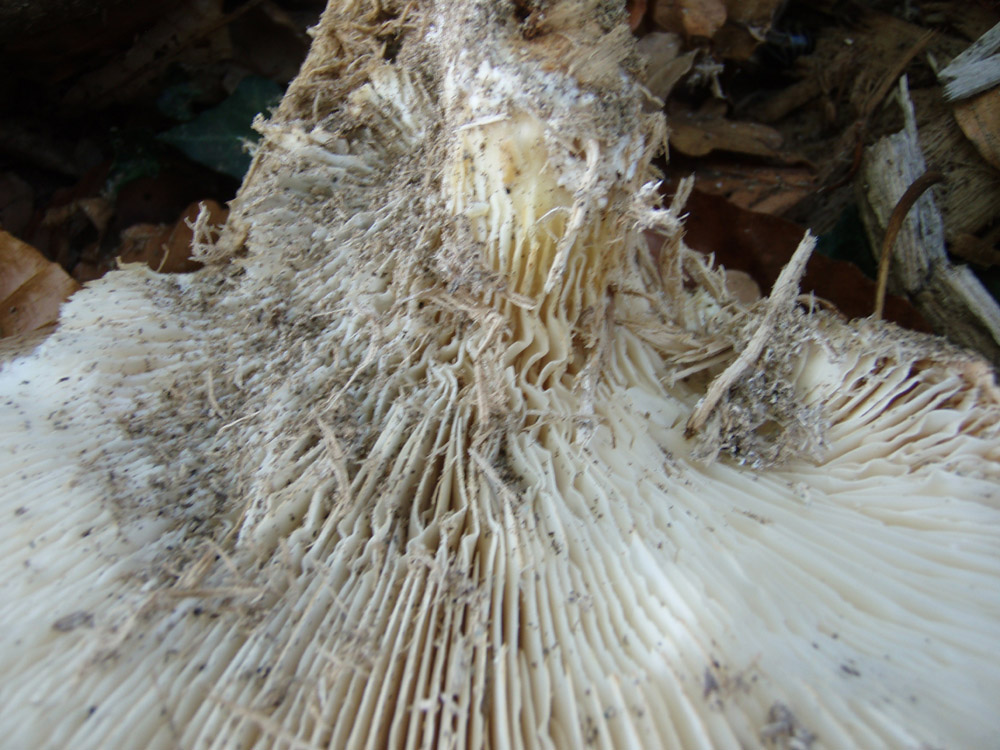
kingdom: Fungi
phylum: Basidiomycota
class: Agaricomycetes
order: Agaricales
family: Pleurotaceae
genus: Pleurotus
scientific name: Pleurotus dryinus
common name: korkagtig østershat
